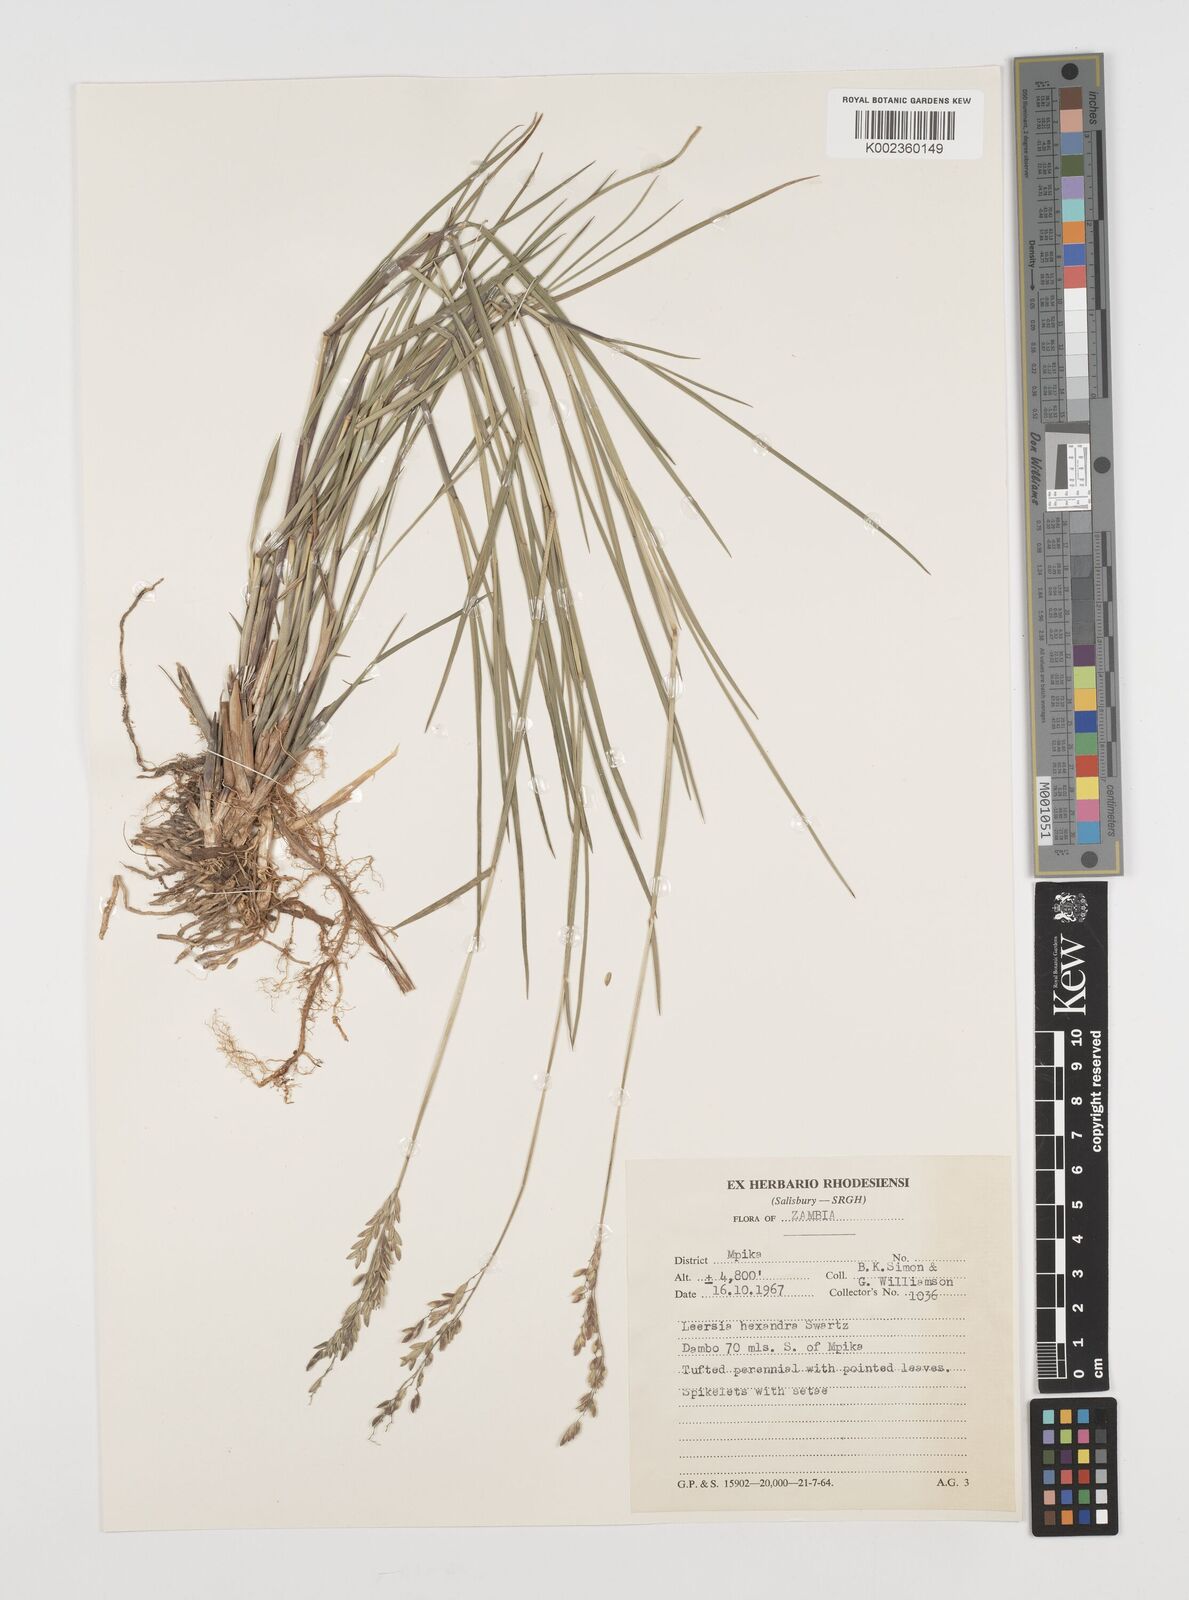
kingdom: Plantae
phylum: Tracheophyta
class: Liliopsida
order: Poales
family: Poaceae
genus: Leersia
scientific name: Leersia hexandra
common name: Southern cut grass
